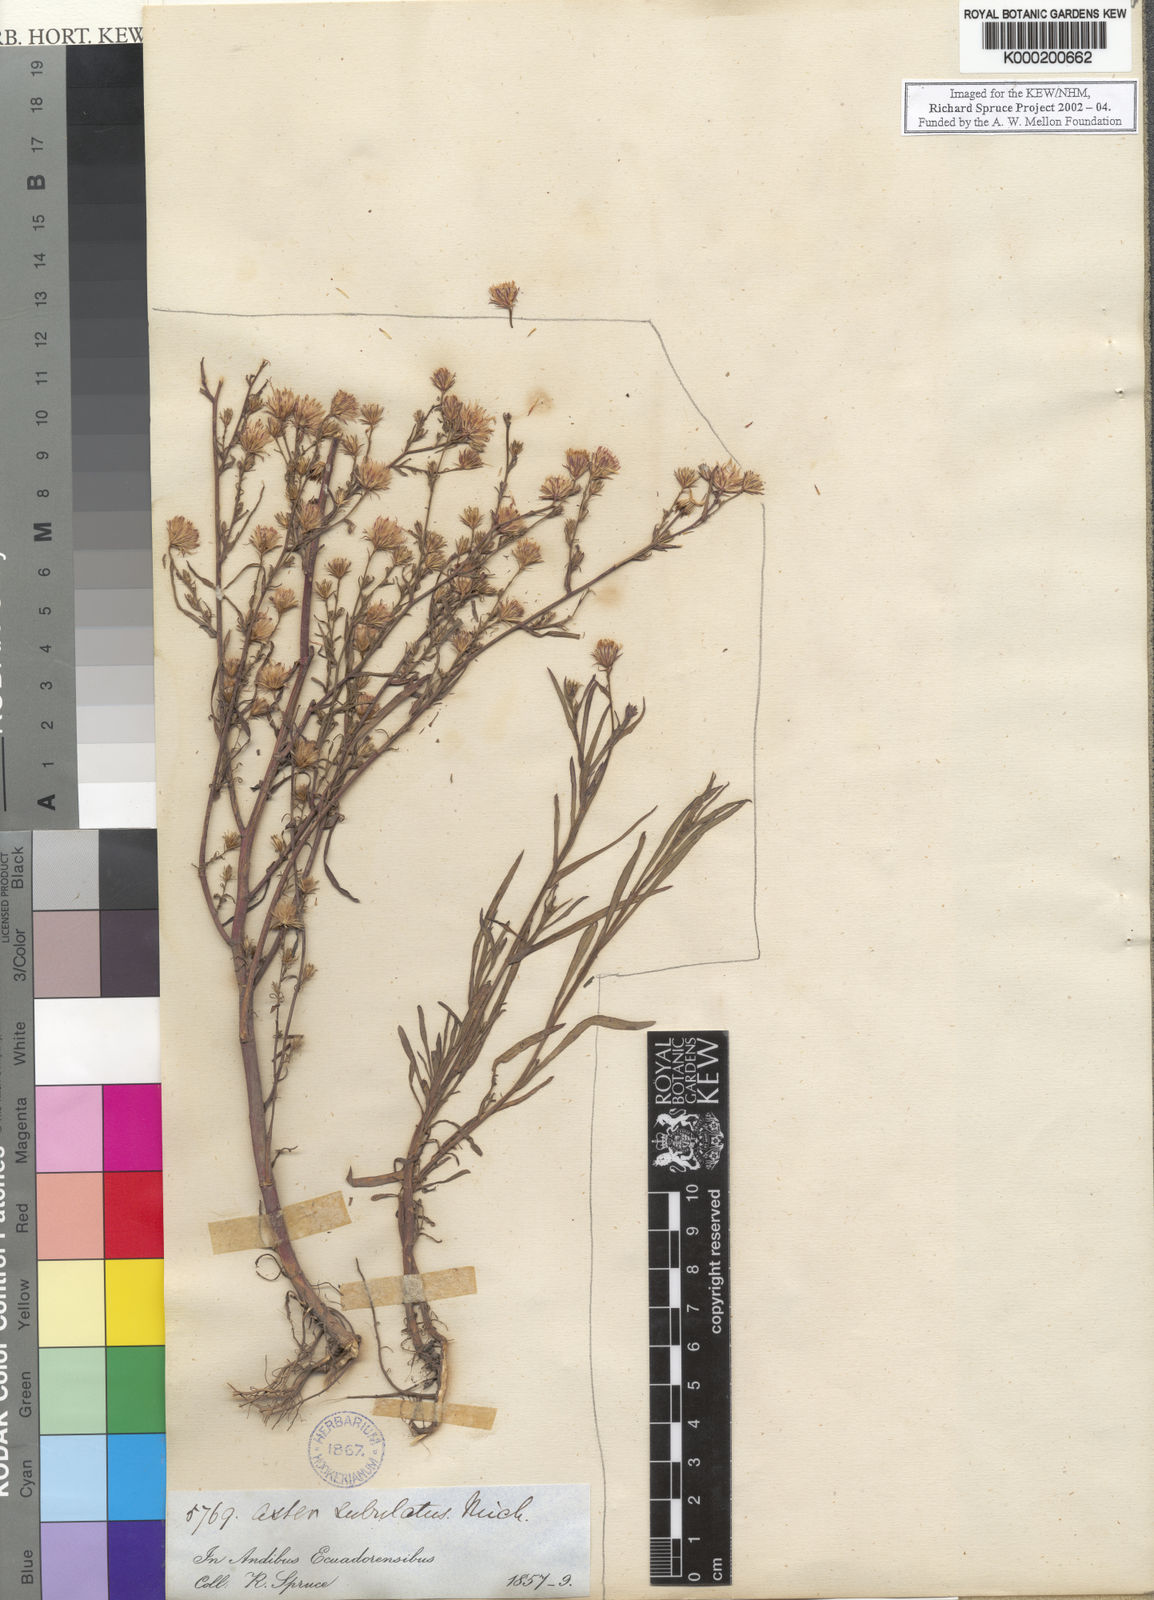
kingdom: Plantae
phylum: Tracheophyta
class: Magnoliopsida
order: Asterales
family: Asteraceae
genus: Symphyotrichum
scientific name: Symphyotrichum squamatum
